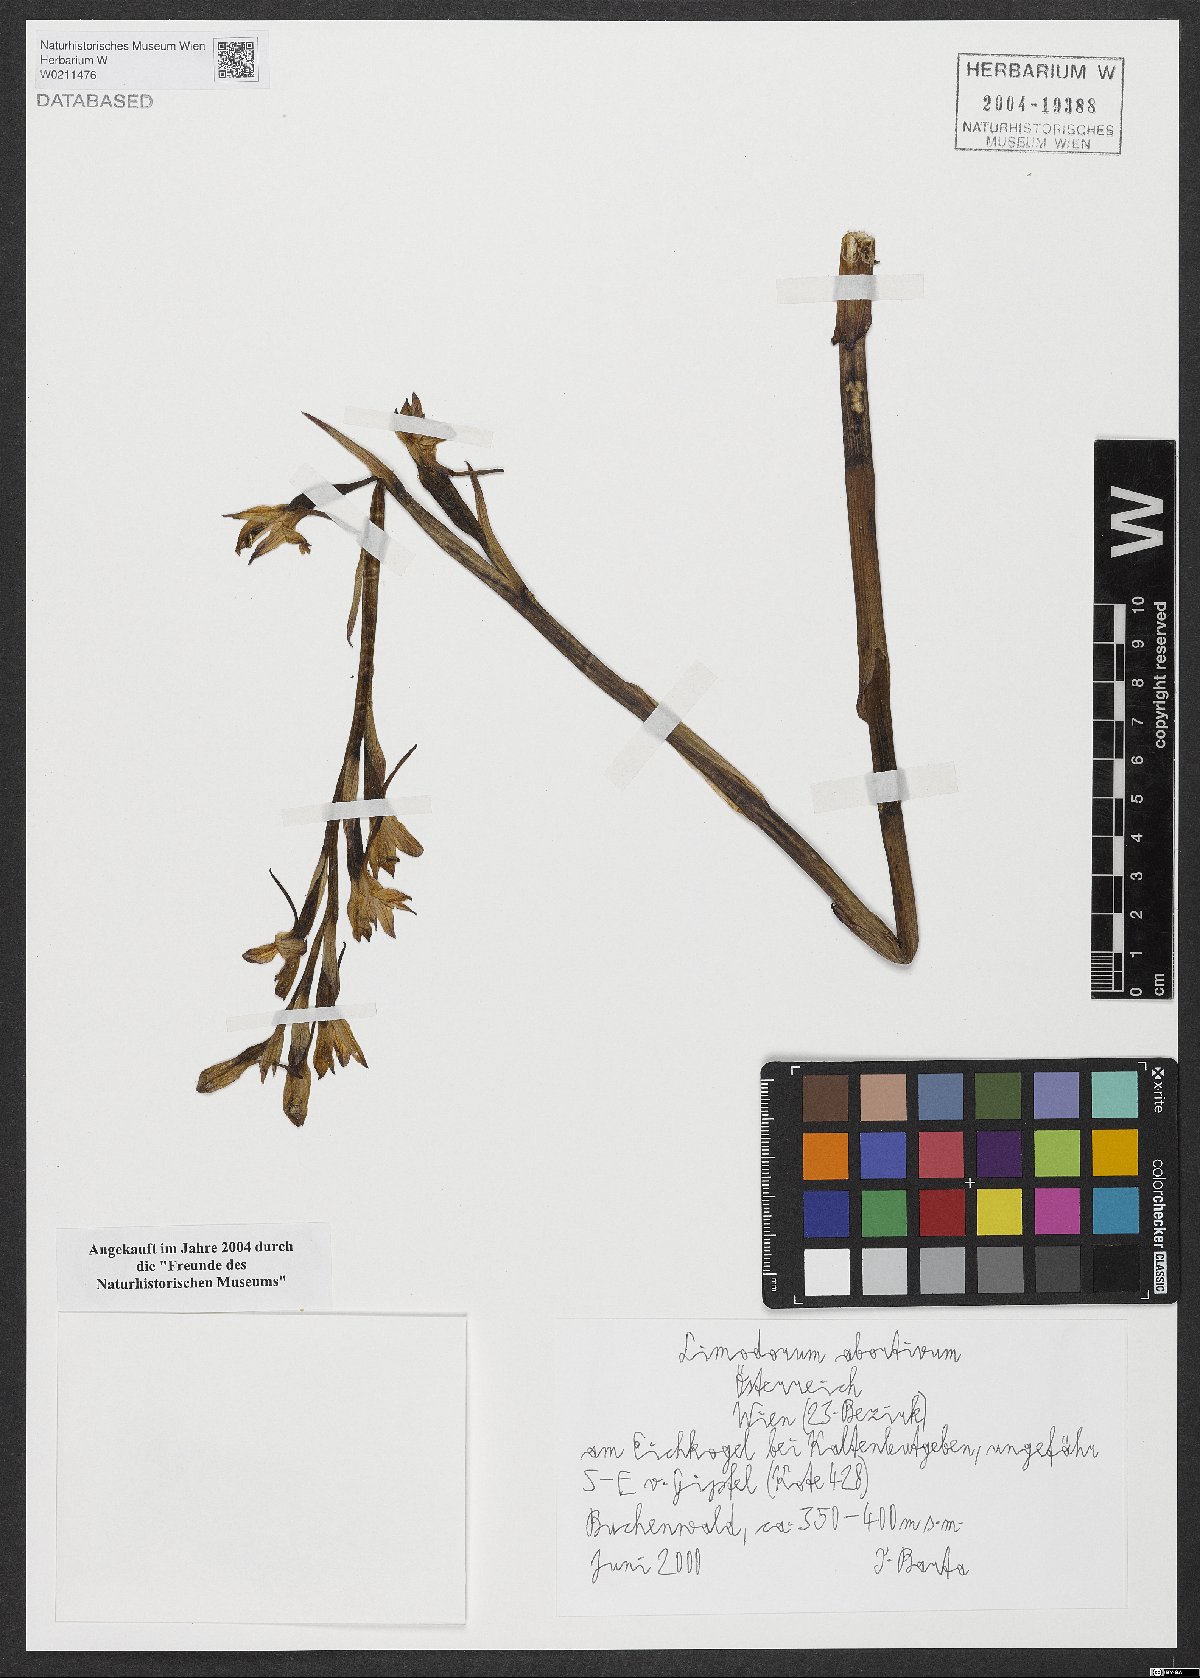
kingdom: Plantae
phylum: Tracheophyta
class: Liliopsida
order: Asparagales
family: Orchidaceae
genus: Limodorum
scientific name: Limodorum abortivum
